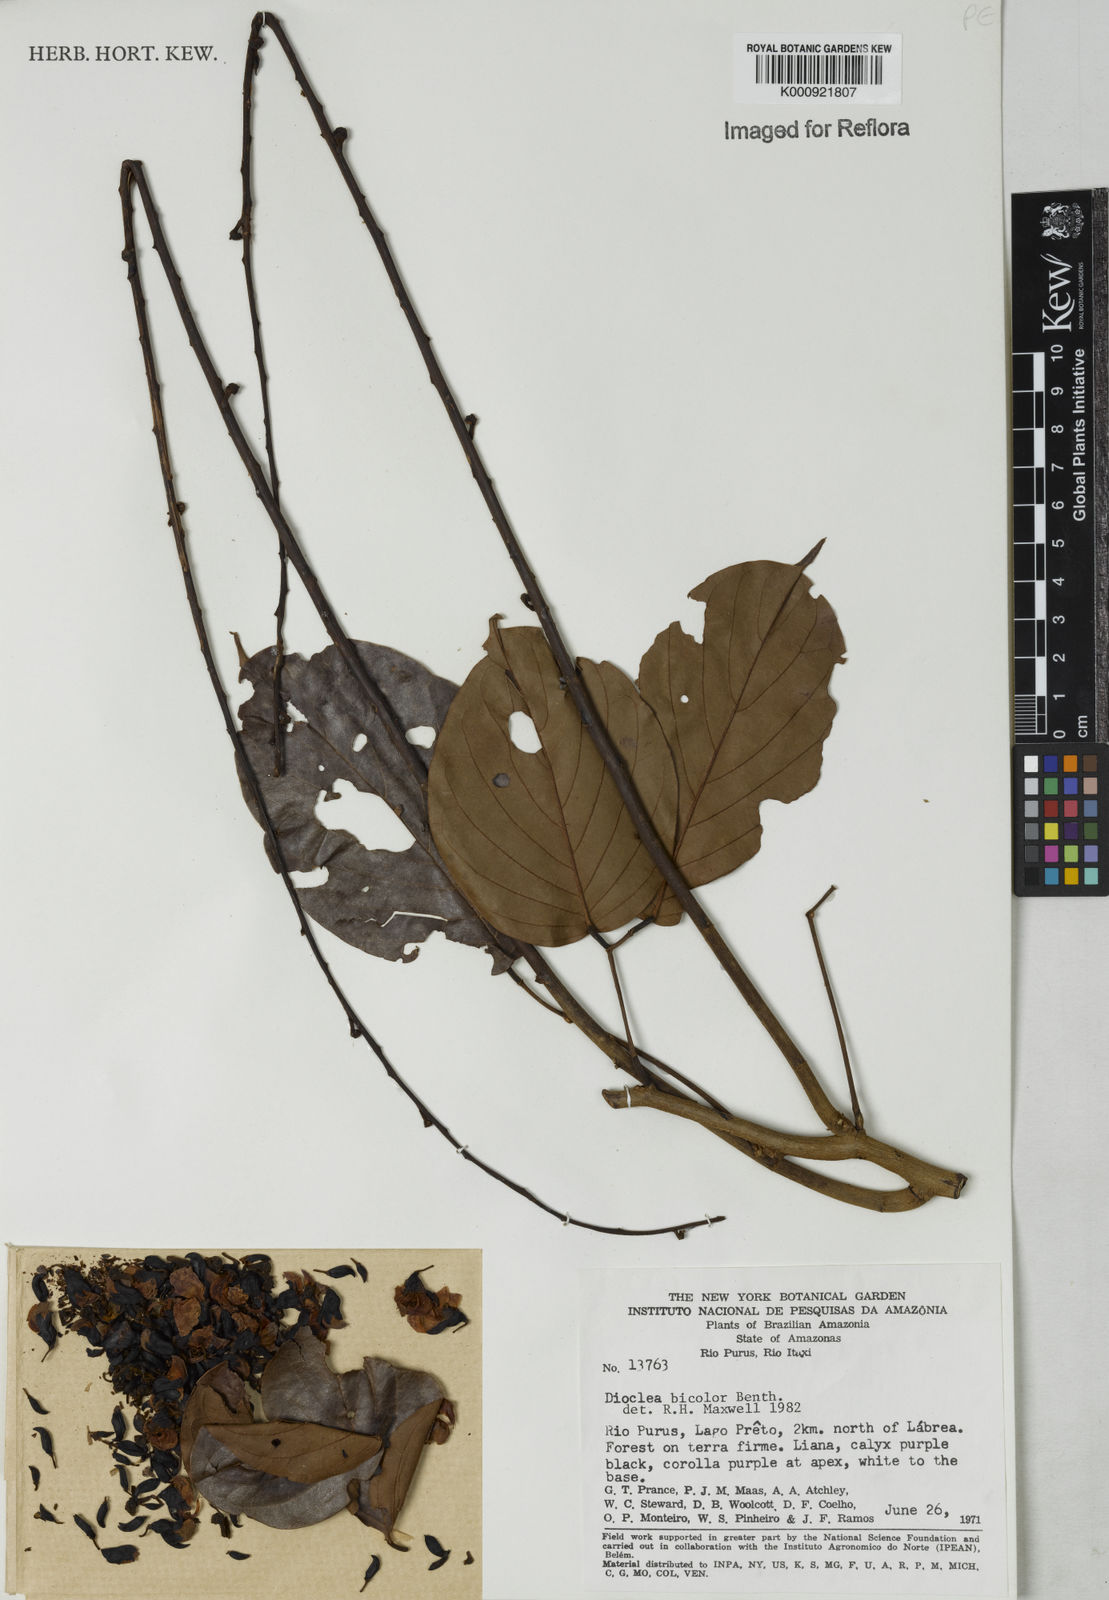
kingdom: Plantae
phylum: Tracheophyta
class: Magnoliopsida
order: Fabales
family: Fabaceae
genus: Macropsychanthus
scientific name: Macropsychanthus bicolor
